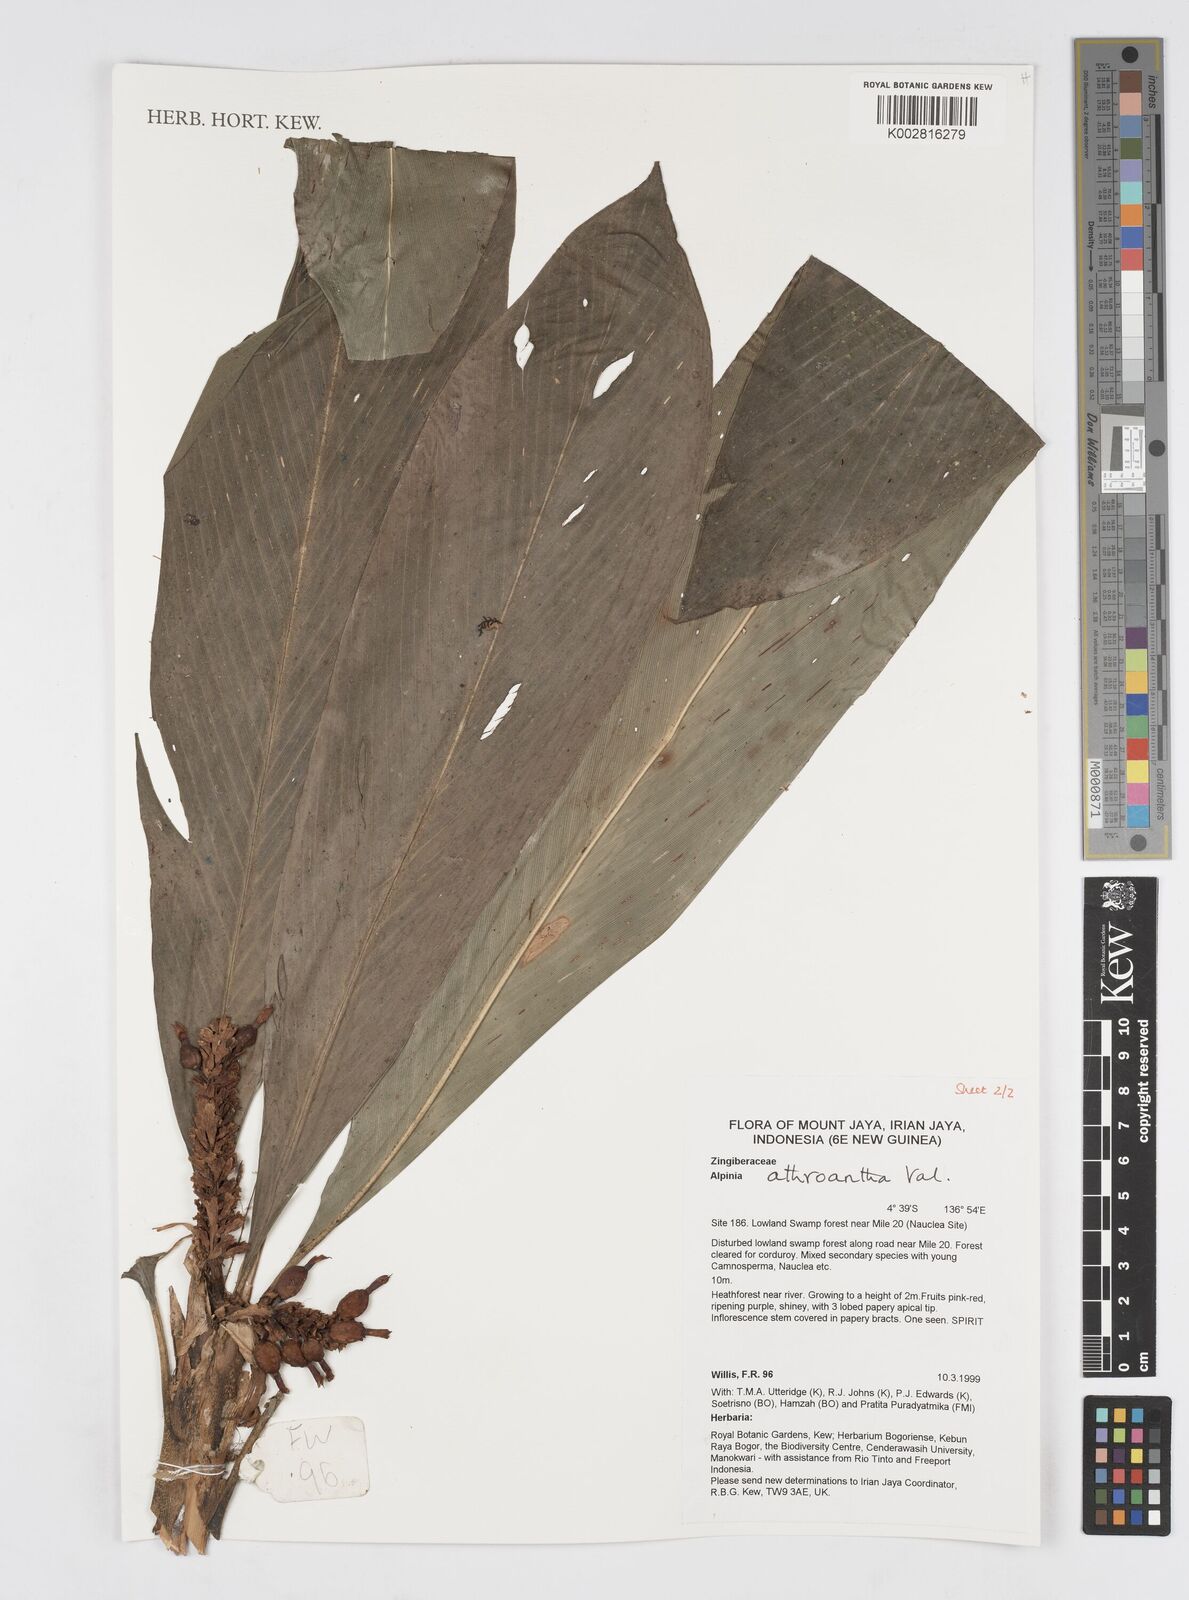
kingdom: Plantae
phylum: Tracheophyta
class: Liliopsida
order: Zingiberales
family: Zingiberaceae
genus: Alpinia
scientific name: Alpinia athroantha
